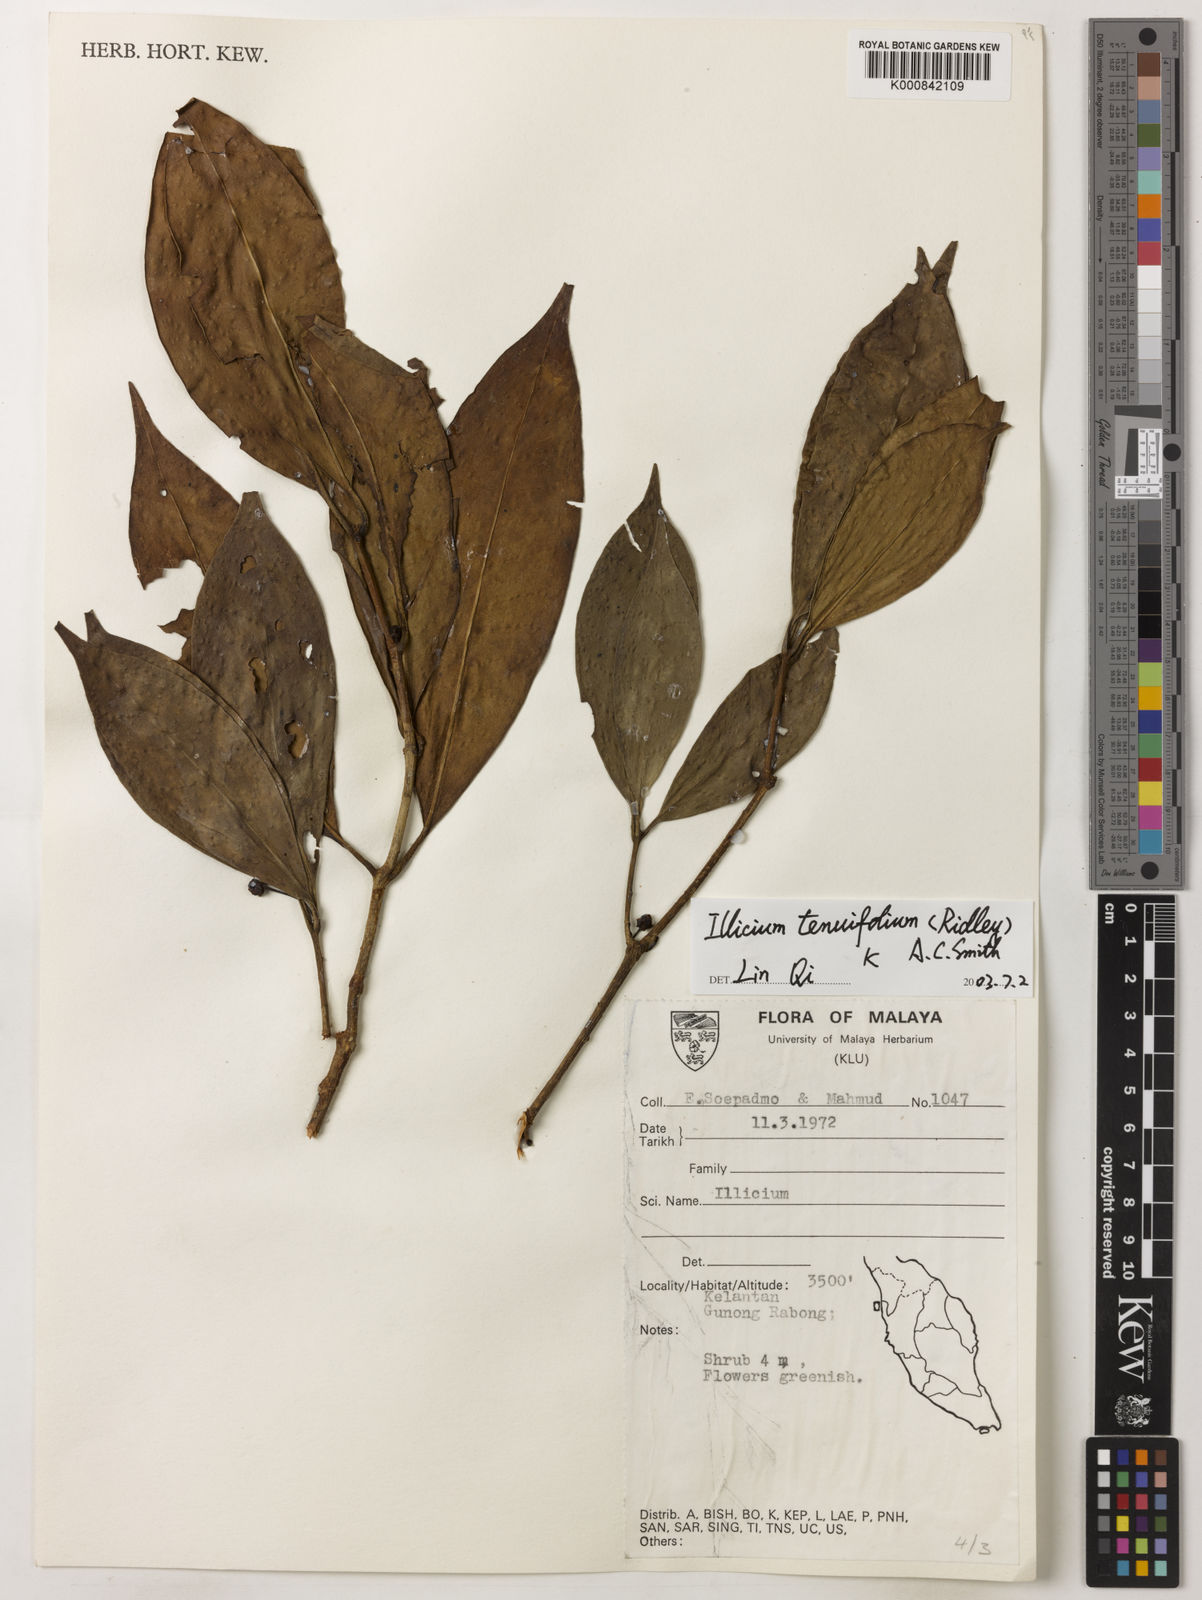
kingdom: Plantae
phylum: Tracheophyta
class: Magnoliopsida
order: Austrobaileyales
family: Schisandraceae
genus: Illicium
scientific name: Illicium tenuifolium
